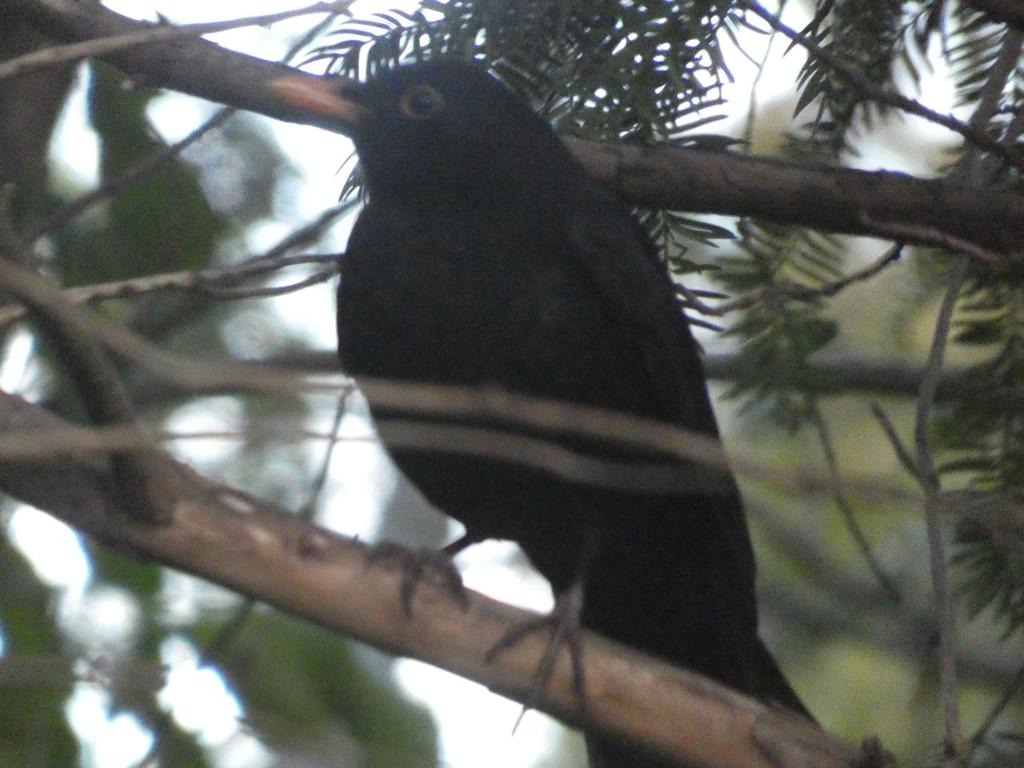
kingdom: Animalia
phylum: Chordata
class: Aves
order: Passeriformes
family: Turdidae
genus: Turdus
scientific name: Turdus merula
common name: Solsort
